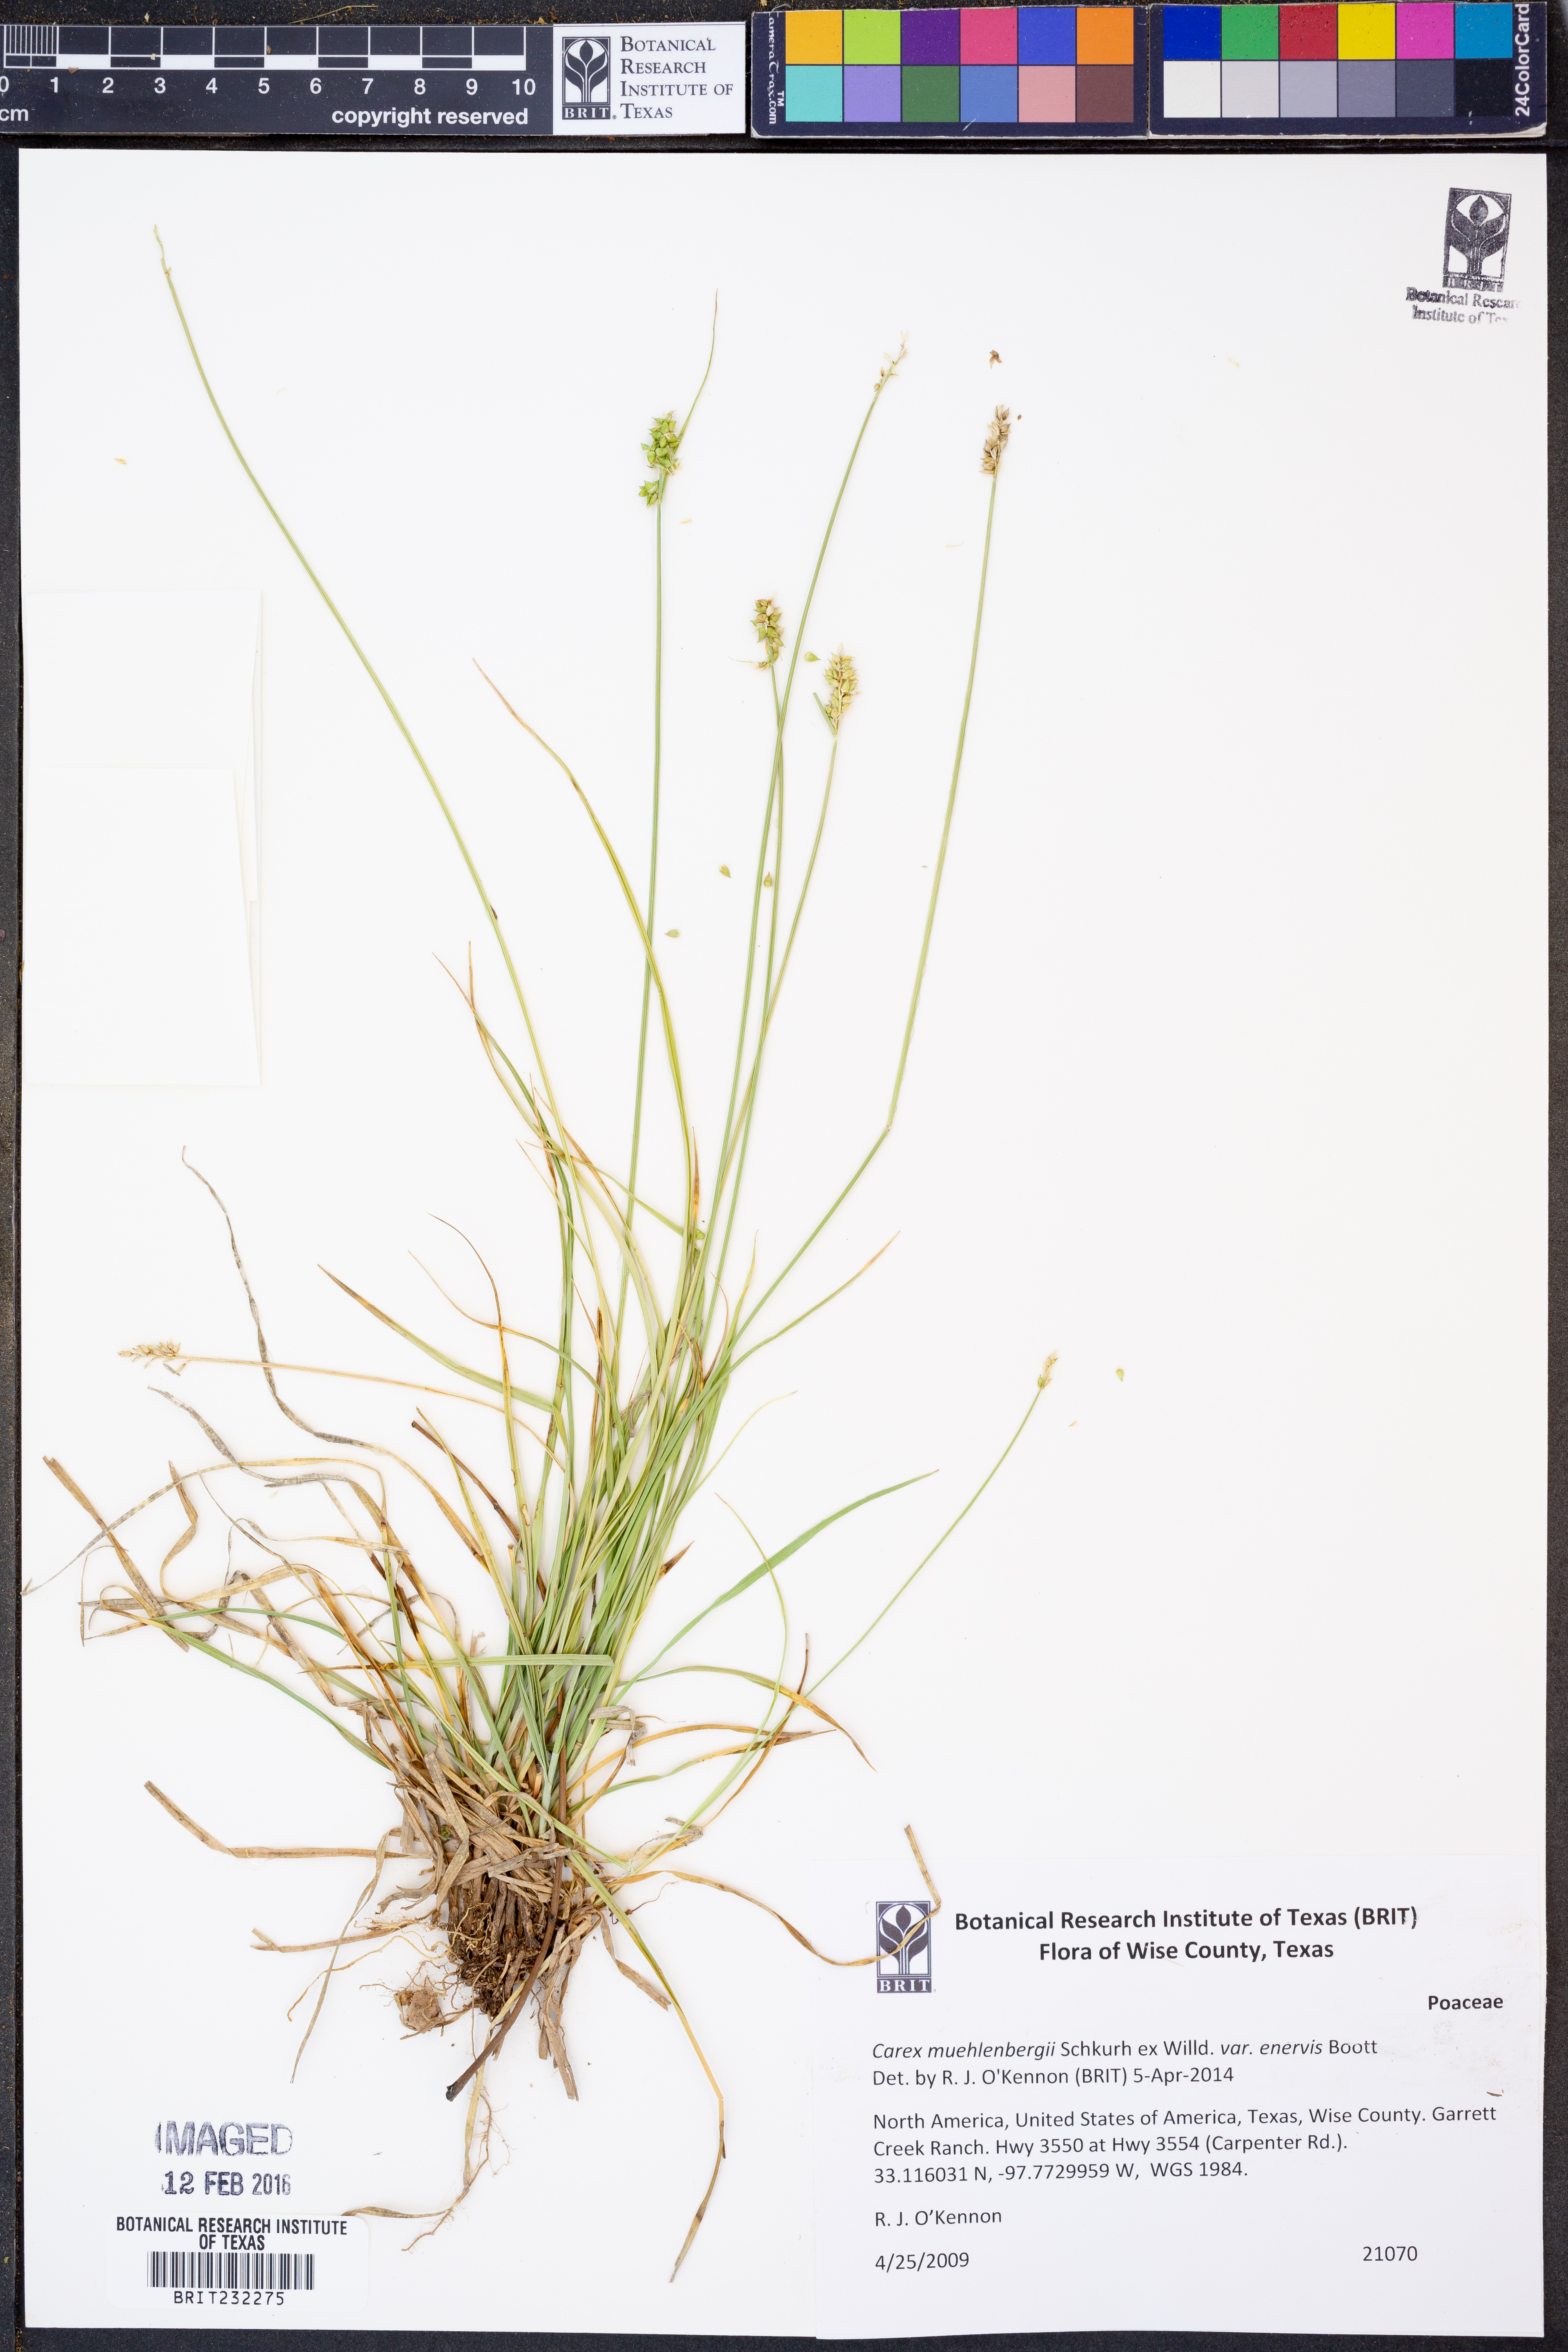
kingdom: Plantae
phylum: Tracheophyta
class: Liliopsida
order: Poales
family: Cyperaceae
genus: Carex
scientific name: Carex muehlenbergii
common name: Muhlenberg's bracted sedge
